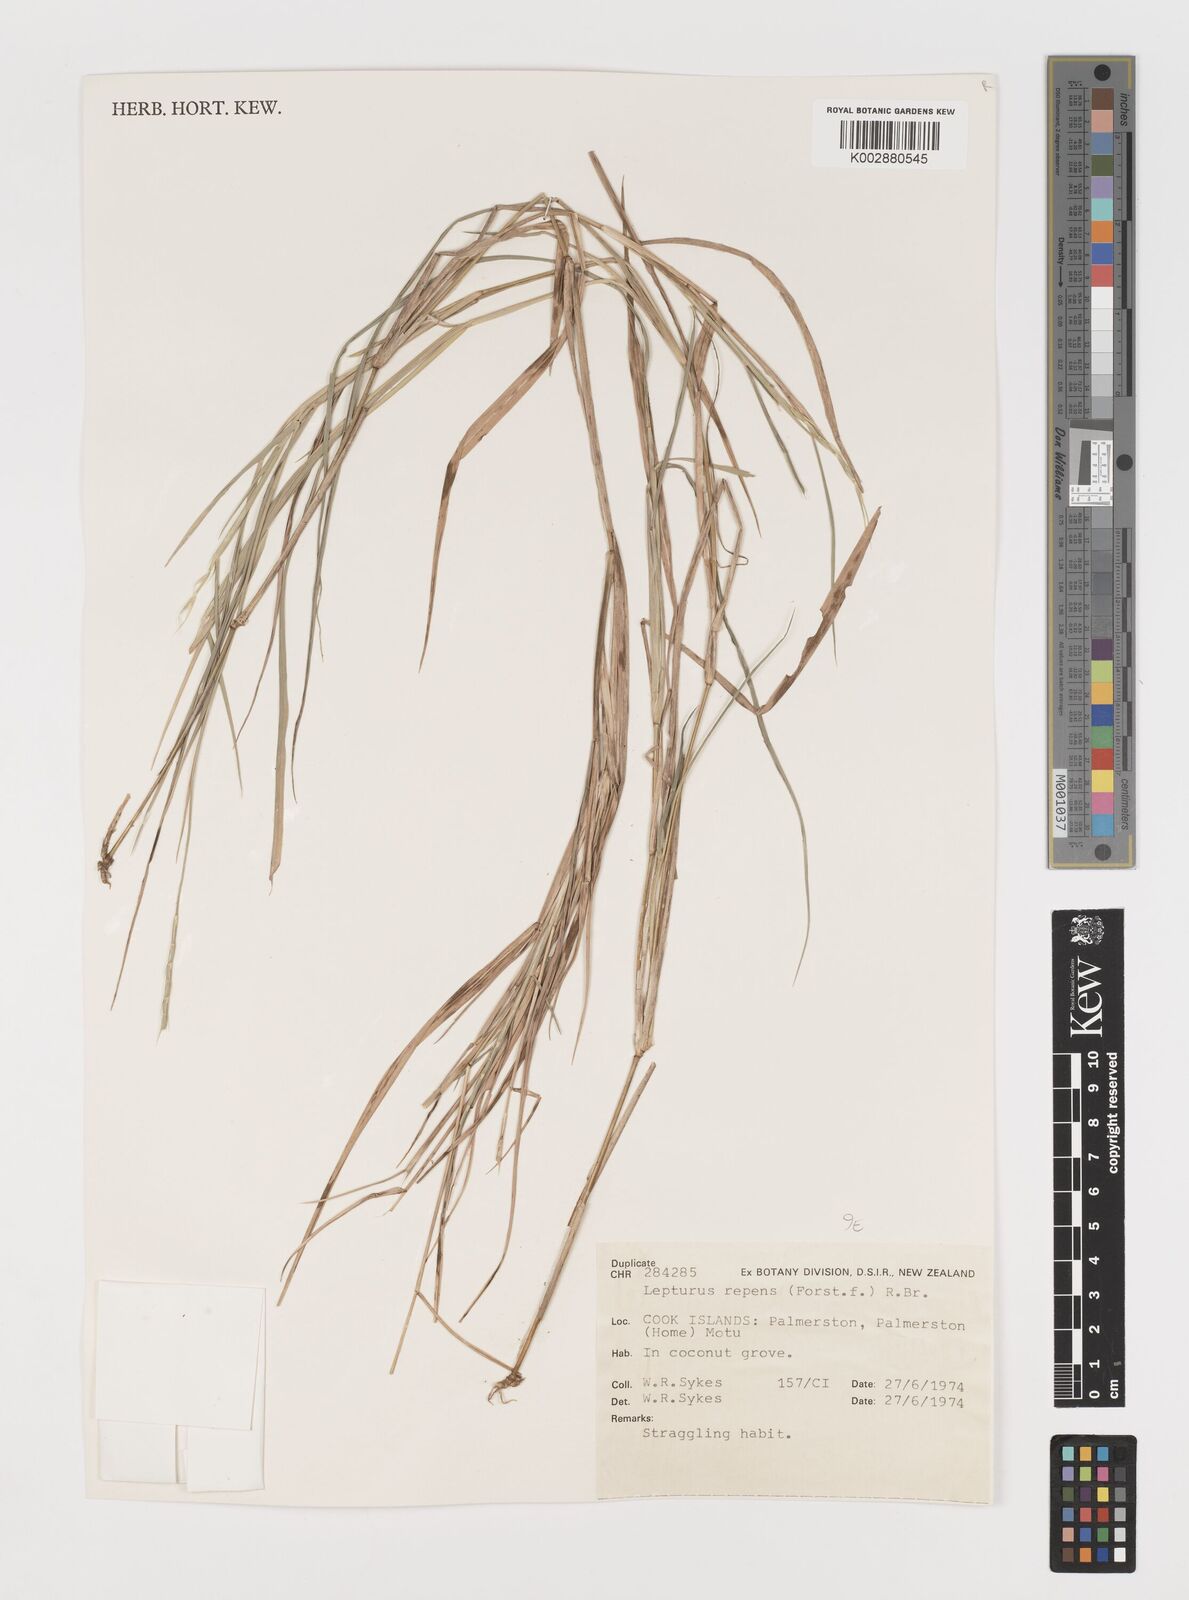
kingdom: Plantae
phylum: Tracheophyta
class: Liliopsida
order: Poales
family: Poaceae
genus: Lepturus
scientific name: Lepturus repens
